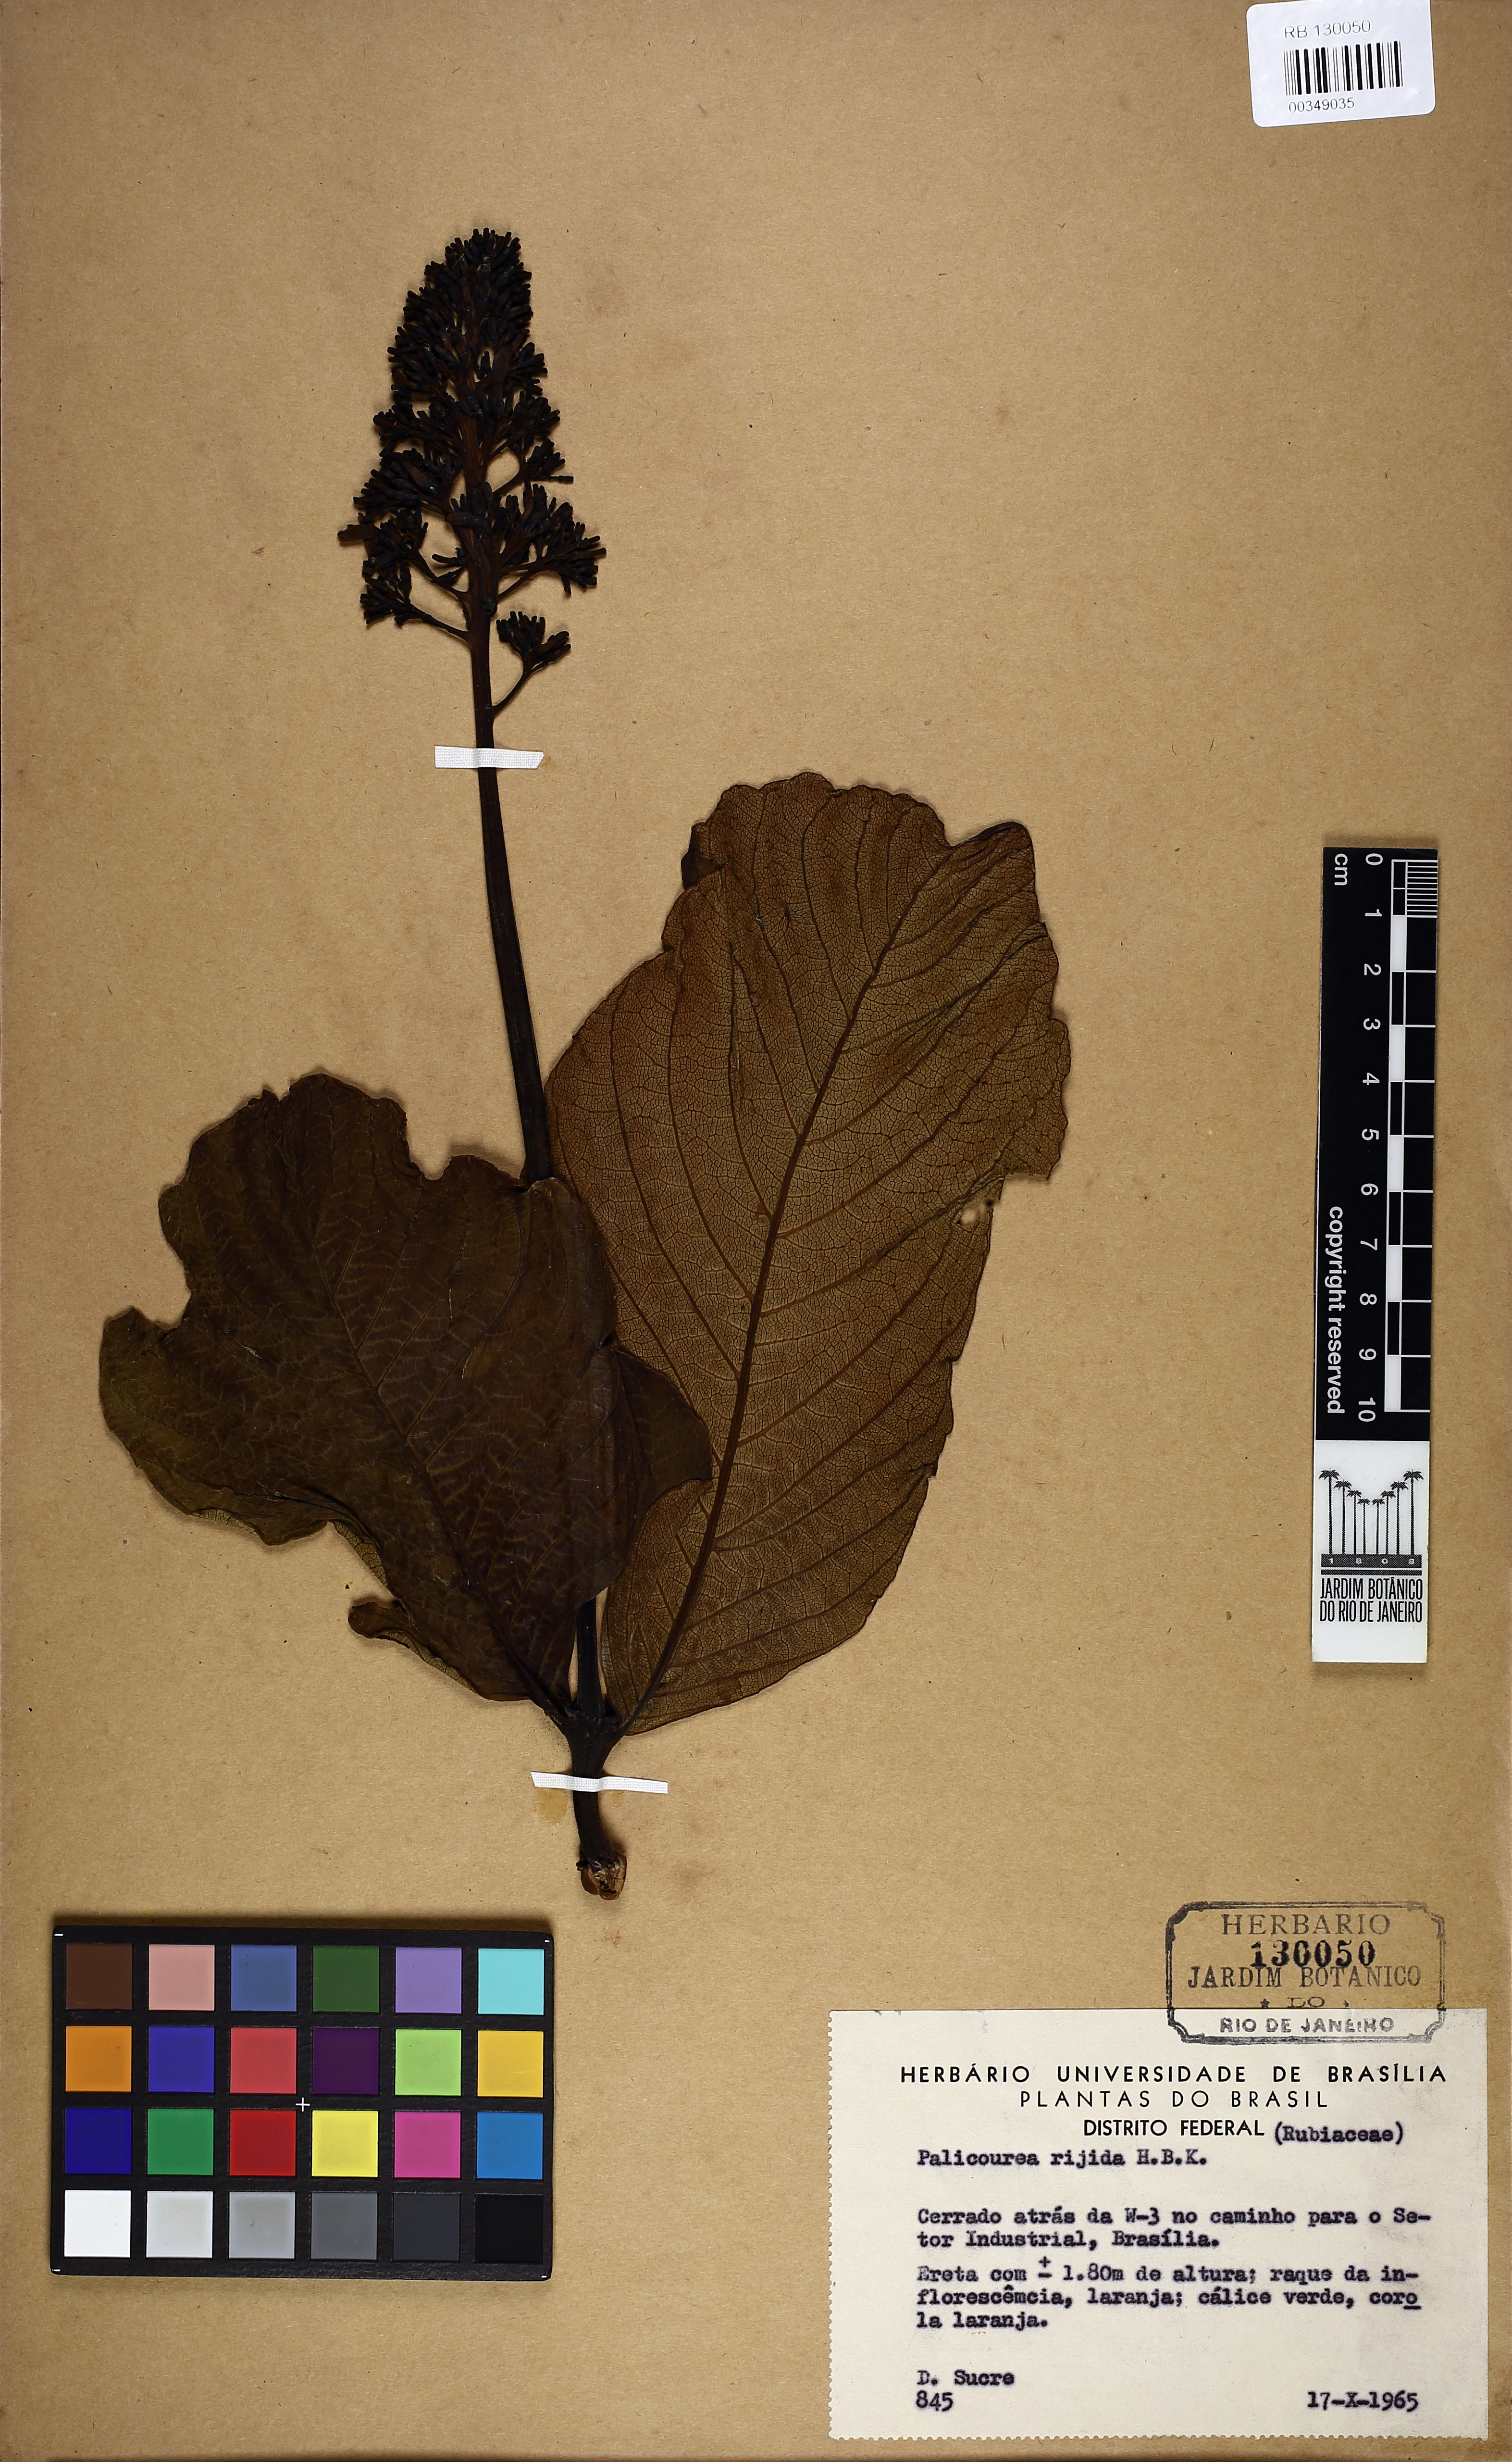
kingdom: Plantae
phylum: Tracheophyta
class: Magnoliopsida
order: Gentianales
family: Rubiaceae
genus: Palicourea
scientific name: Palicourea rigida
